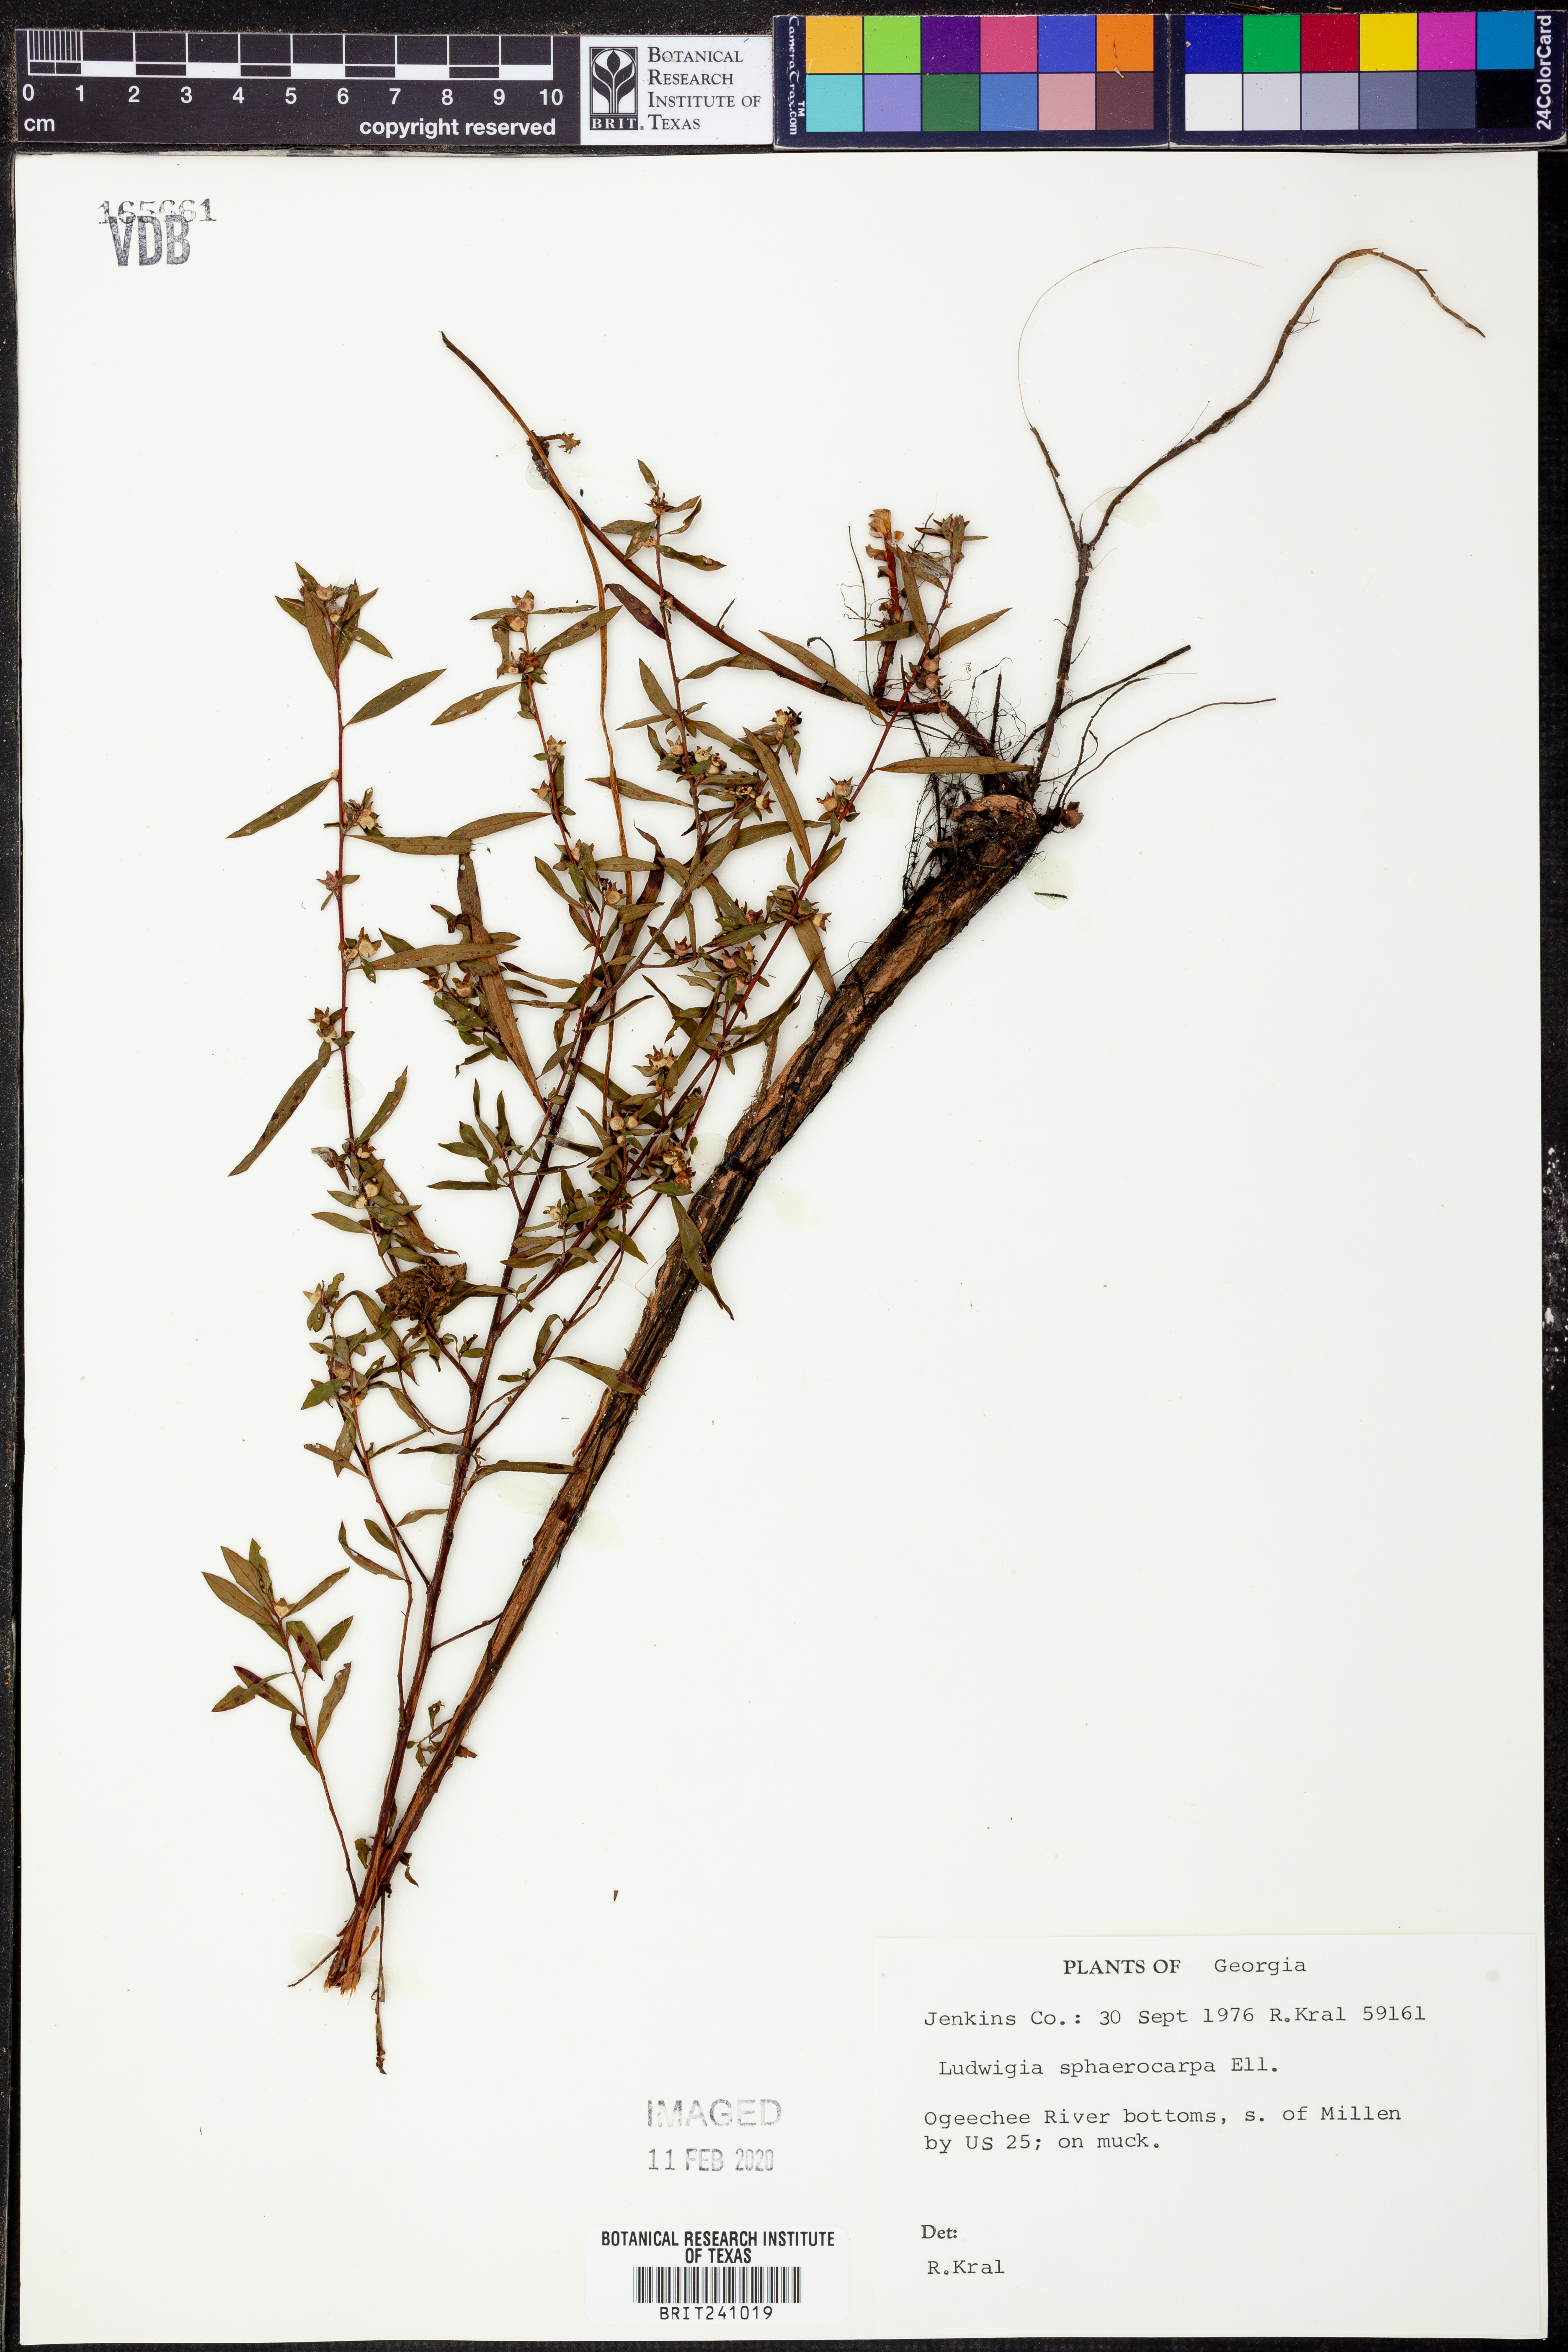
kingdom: Plantae
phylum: Tracheophyta
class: Magnoliopsida
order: Myrtales
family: Onagraceae
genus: Ludwigia
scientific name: Ludwigia sphaerocarpa
